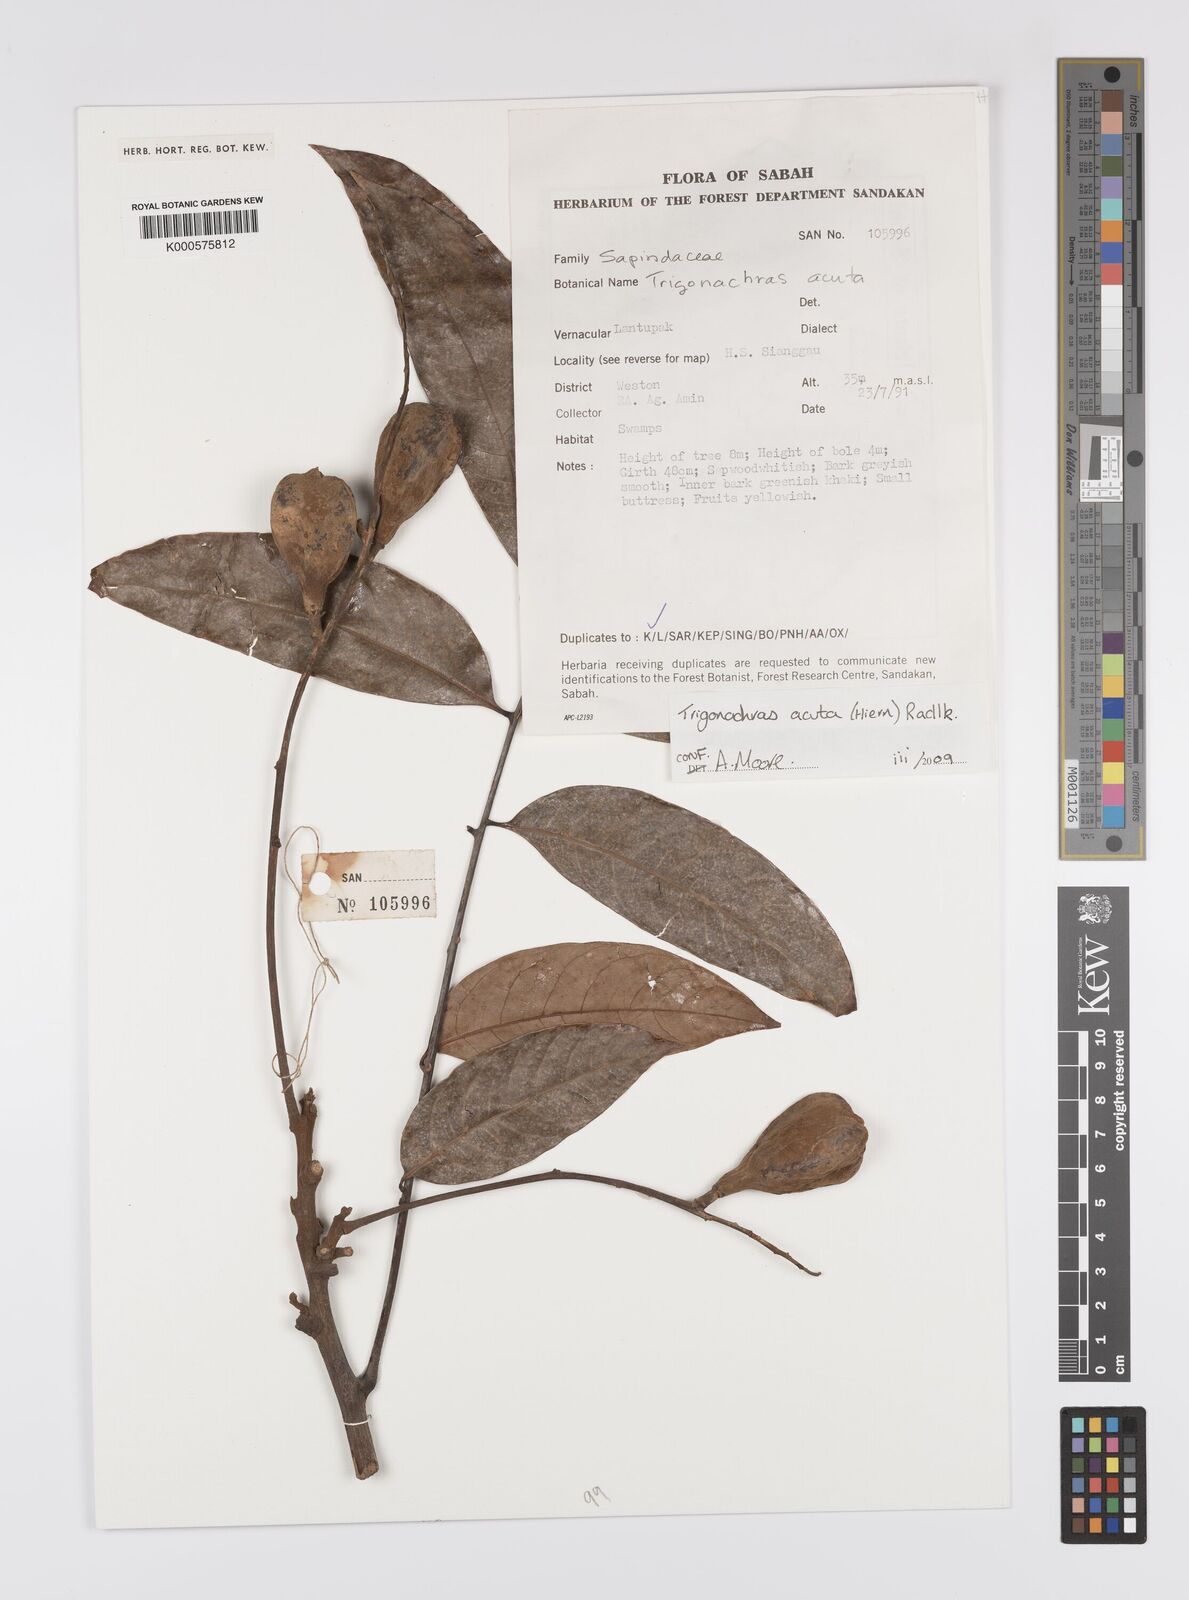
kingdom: Plantae
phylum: Tracheophyta
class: Magnoliopsida
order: Sapindales
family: Sapindaceae
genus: Trigonachras
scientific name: Trigonachras acuta
